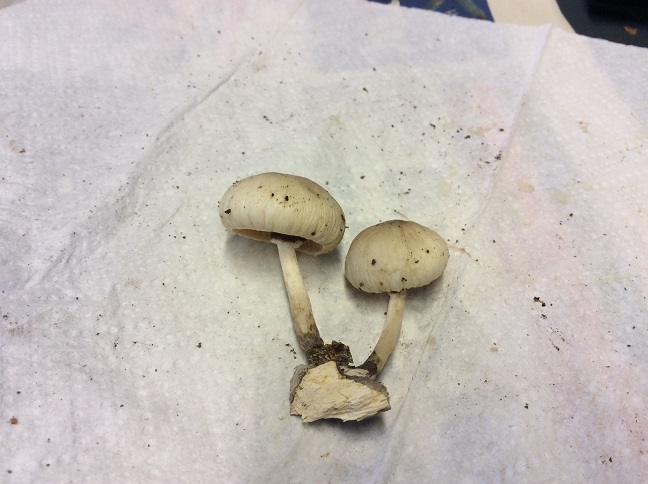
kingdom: Fungi
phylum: Basidiomycota
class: Agaricomycetes
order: Agaricales
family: Physalacriaceae
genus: Mucidula
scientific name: Mucidula mucida
